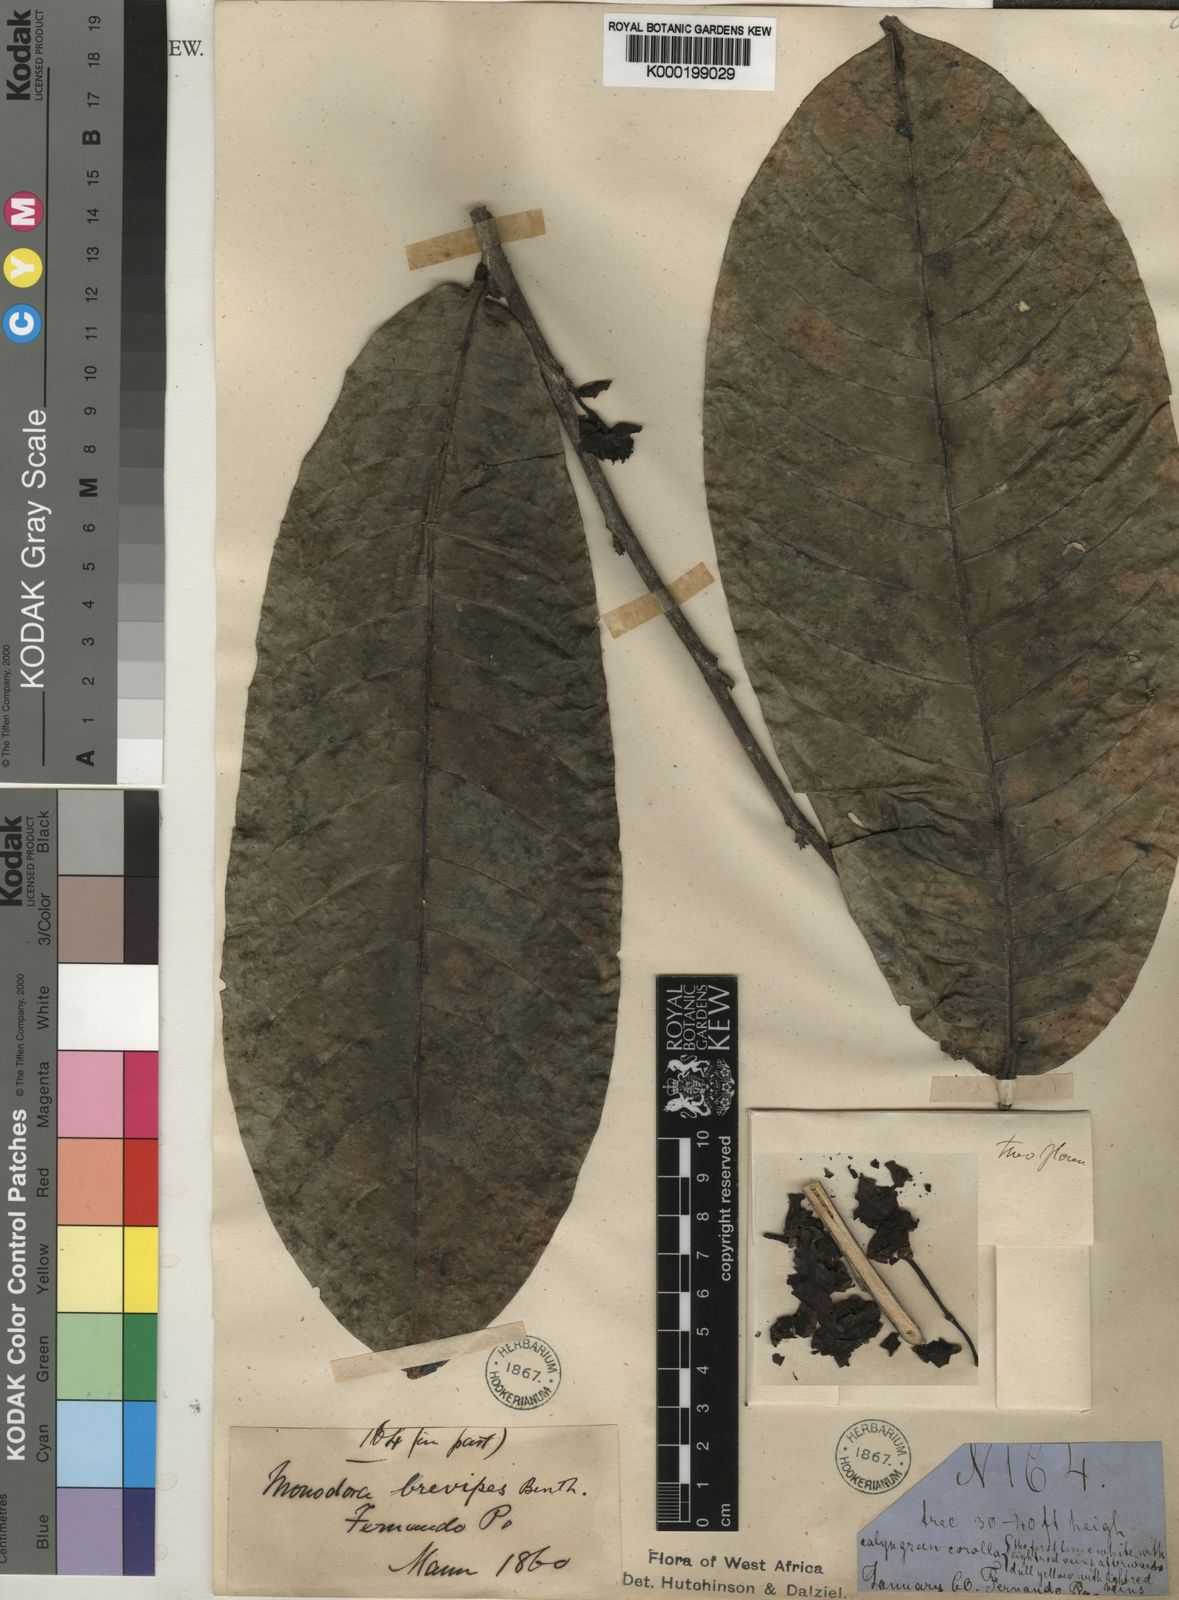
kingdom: Plantae
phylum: Tracheophyta
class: Magnoliopsida
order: Magnoliales
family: Annonaceae
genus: Monodora
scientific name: Monodora undulata
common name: Yellow-flower-nutmeg
